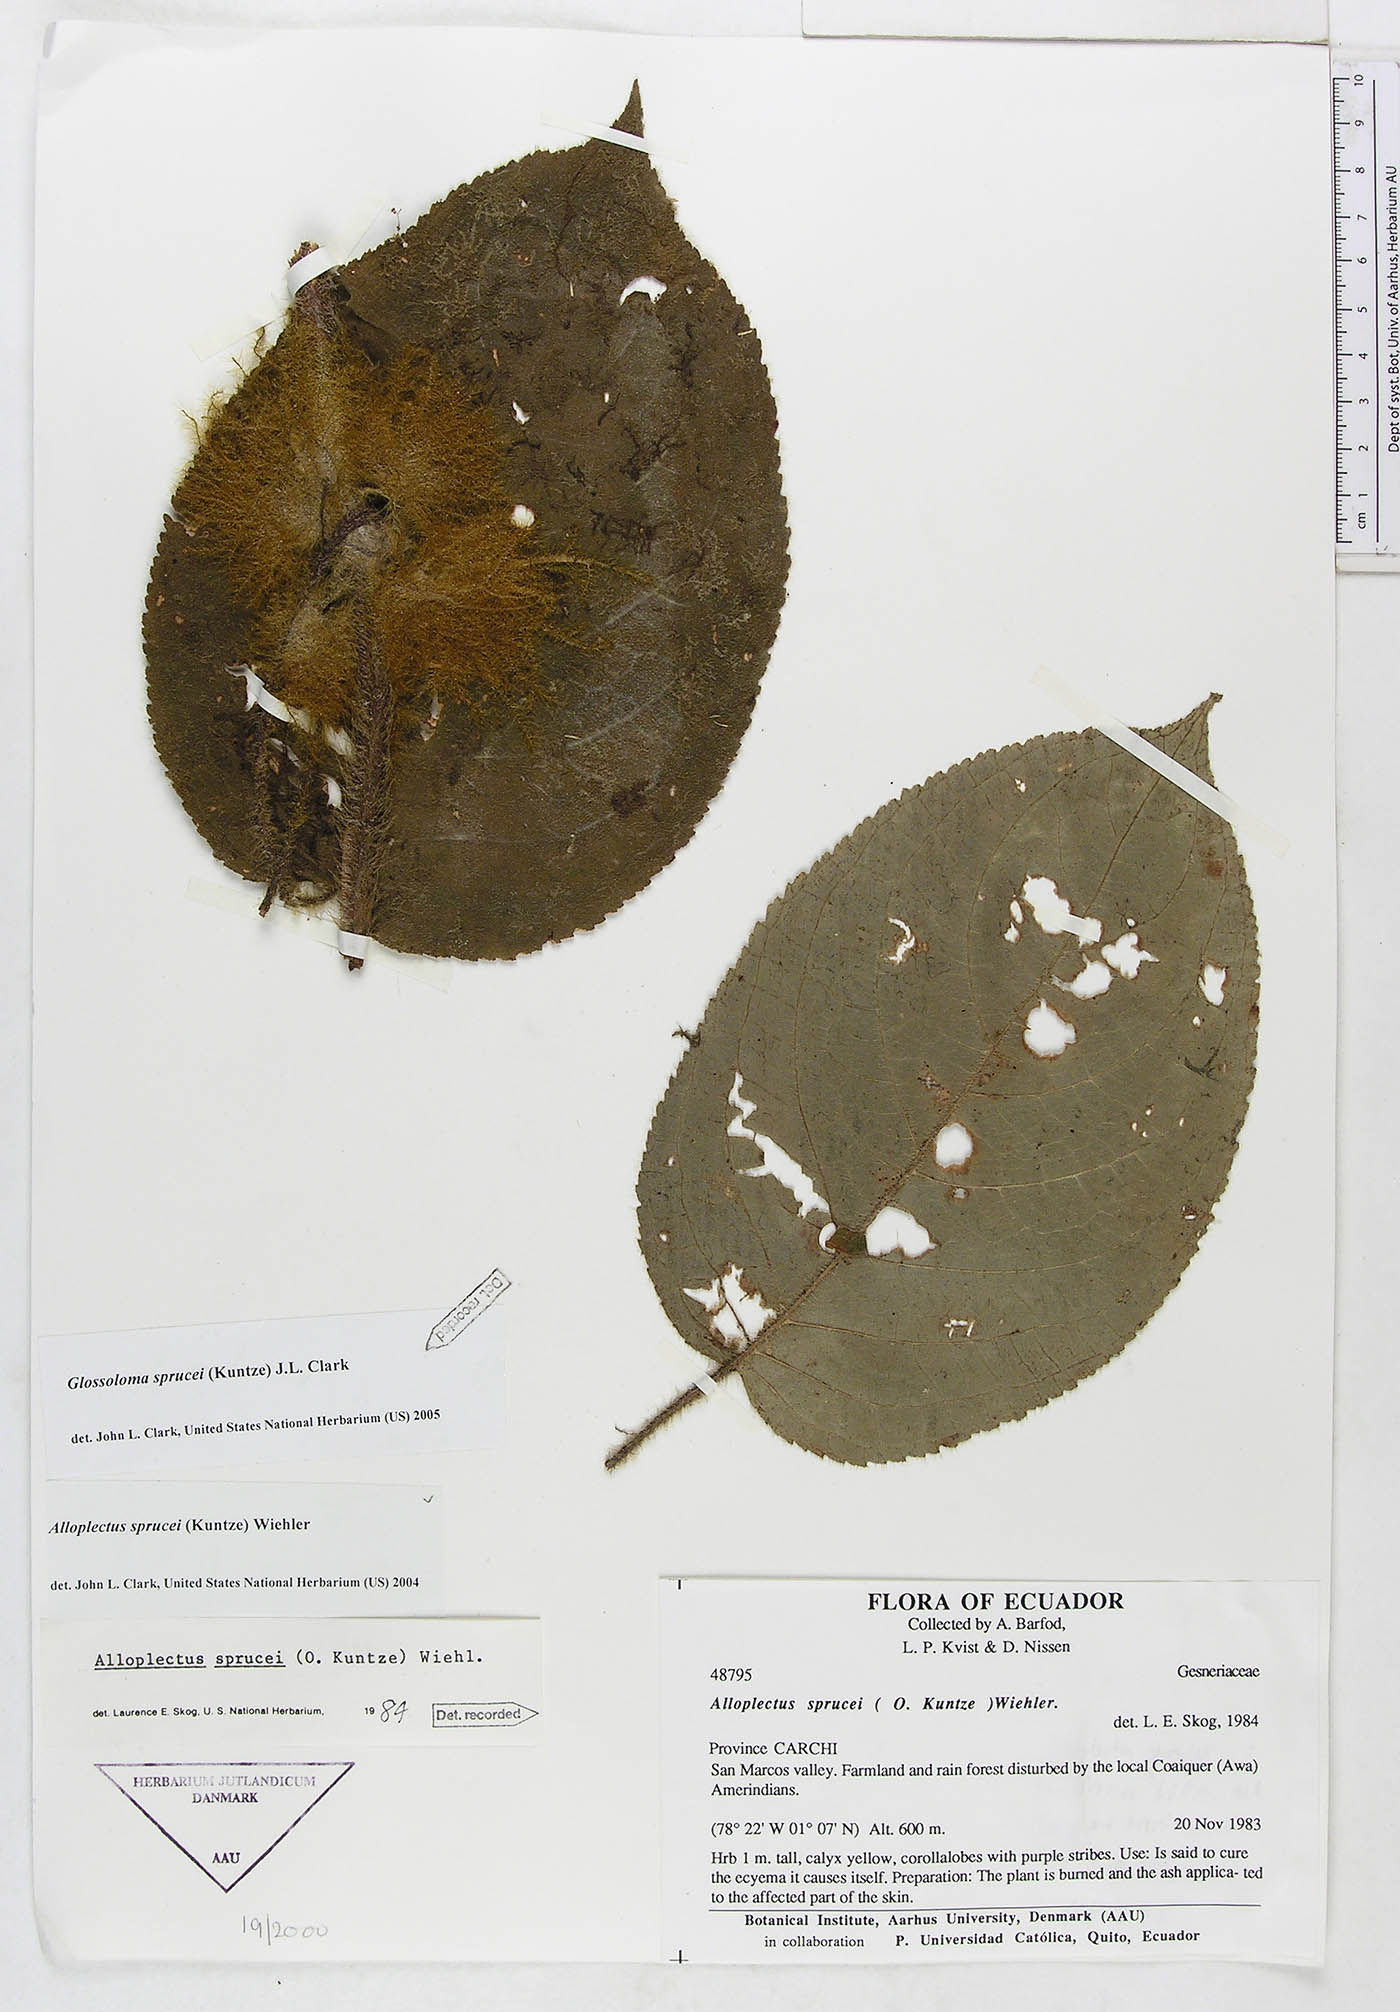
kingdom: Plantae
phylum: Tracheophyta
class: Magnoliopsida
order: Lamiales
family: Gesneriaceae
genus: Glossoloma
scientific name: Glossoloma sprucei
